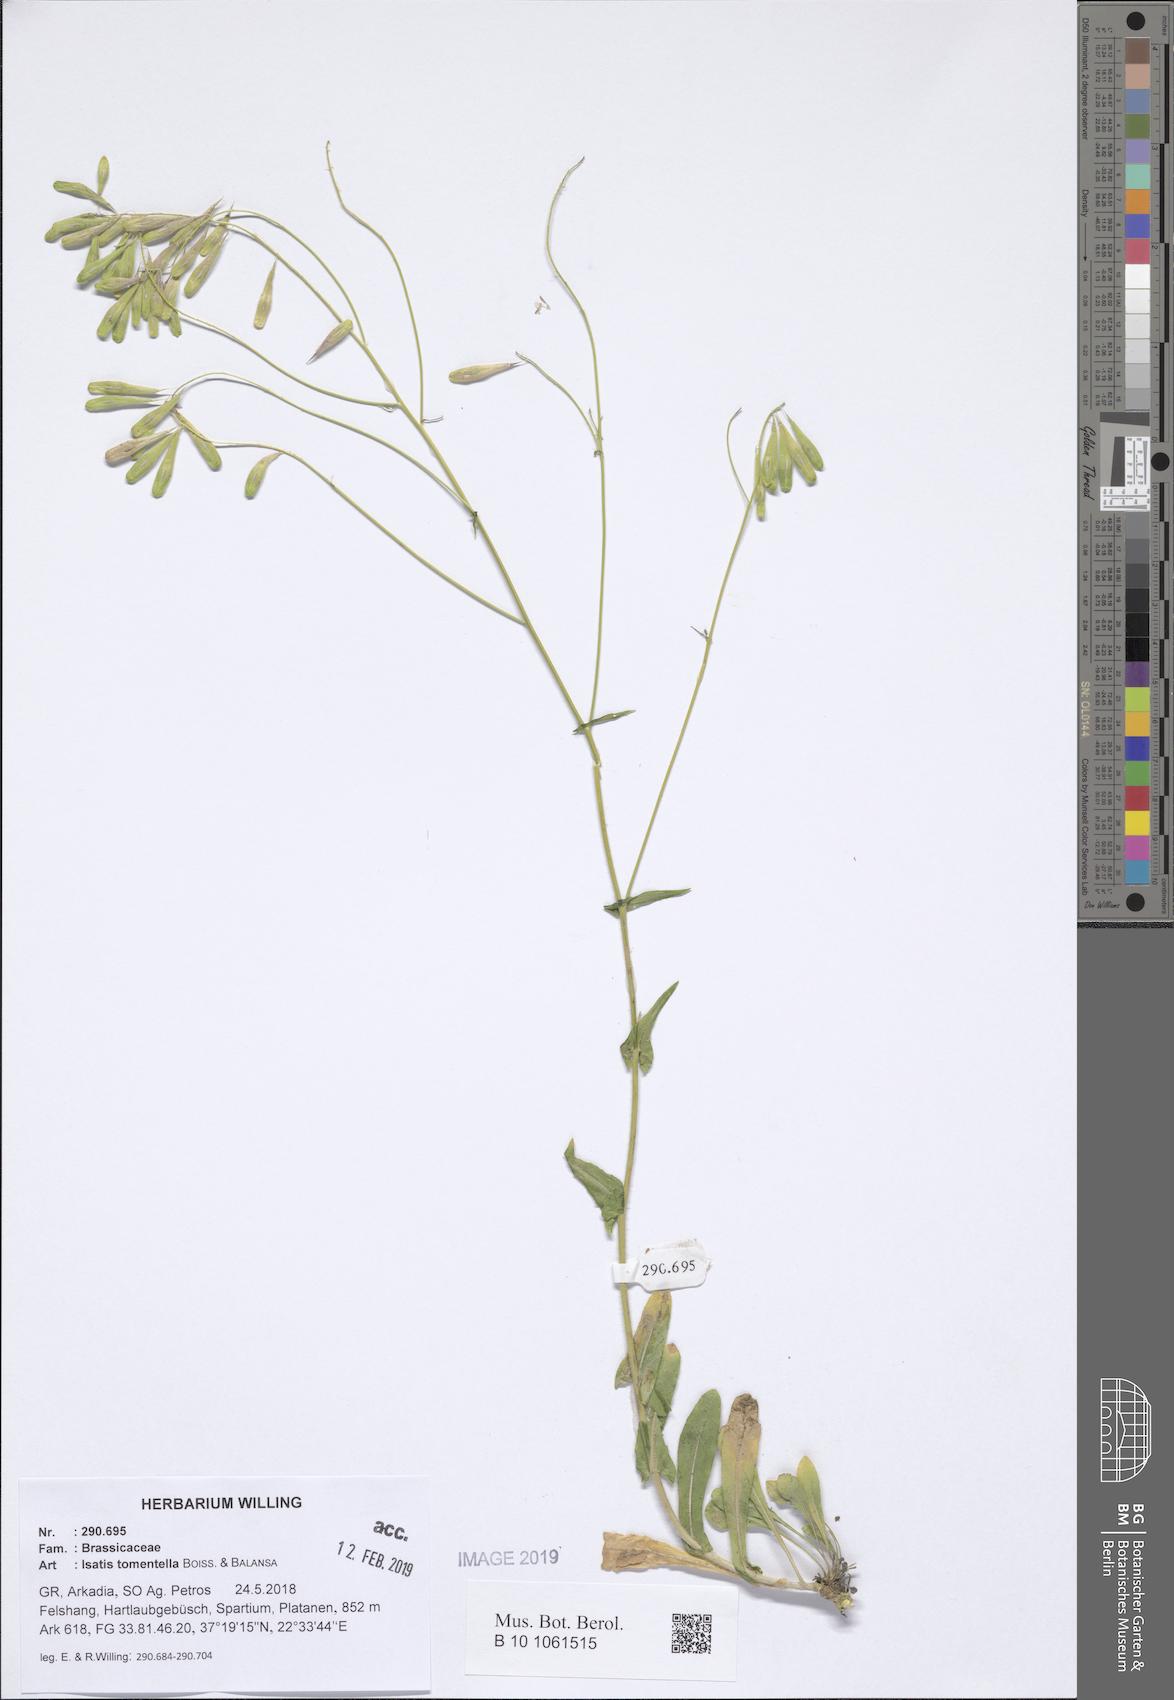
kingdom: Plantae
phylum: Tracheophyta
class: Magnoliopsida
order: Brassicales
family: Brassicaceae
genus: Isatis
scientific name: Isatis tomentella
